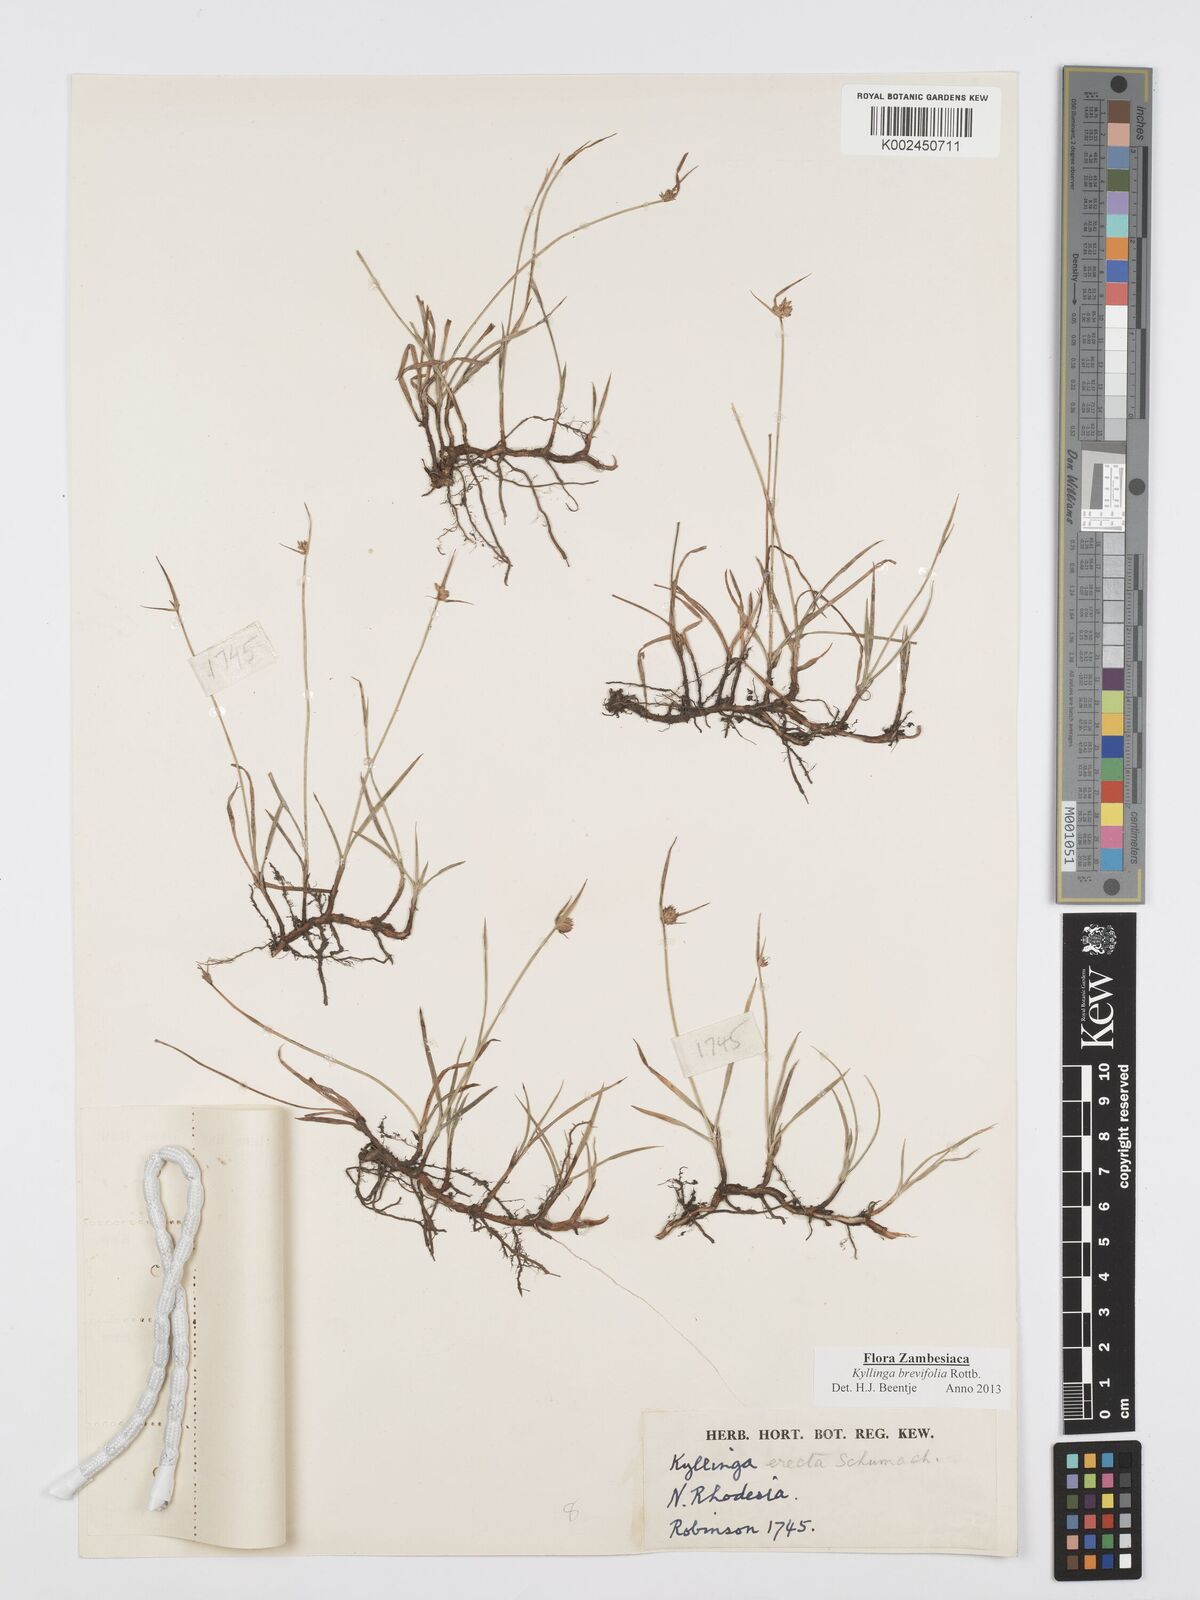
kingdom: Plantae
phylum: Tracheophyta
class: Liliopsida
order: Poales
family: Cyperaceae
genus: Cyperus
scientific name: Cyperus brevifolius
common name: Globe kyllinga
